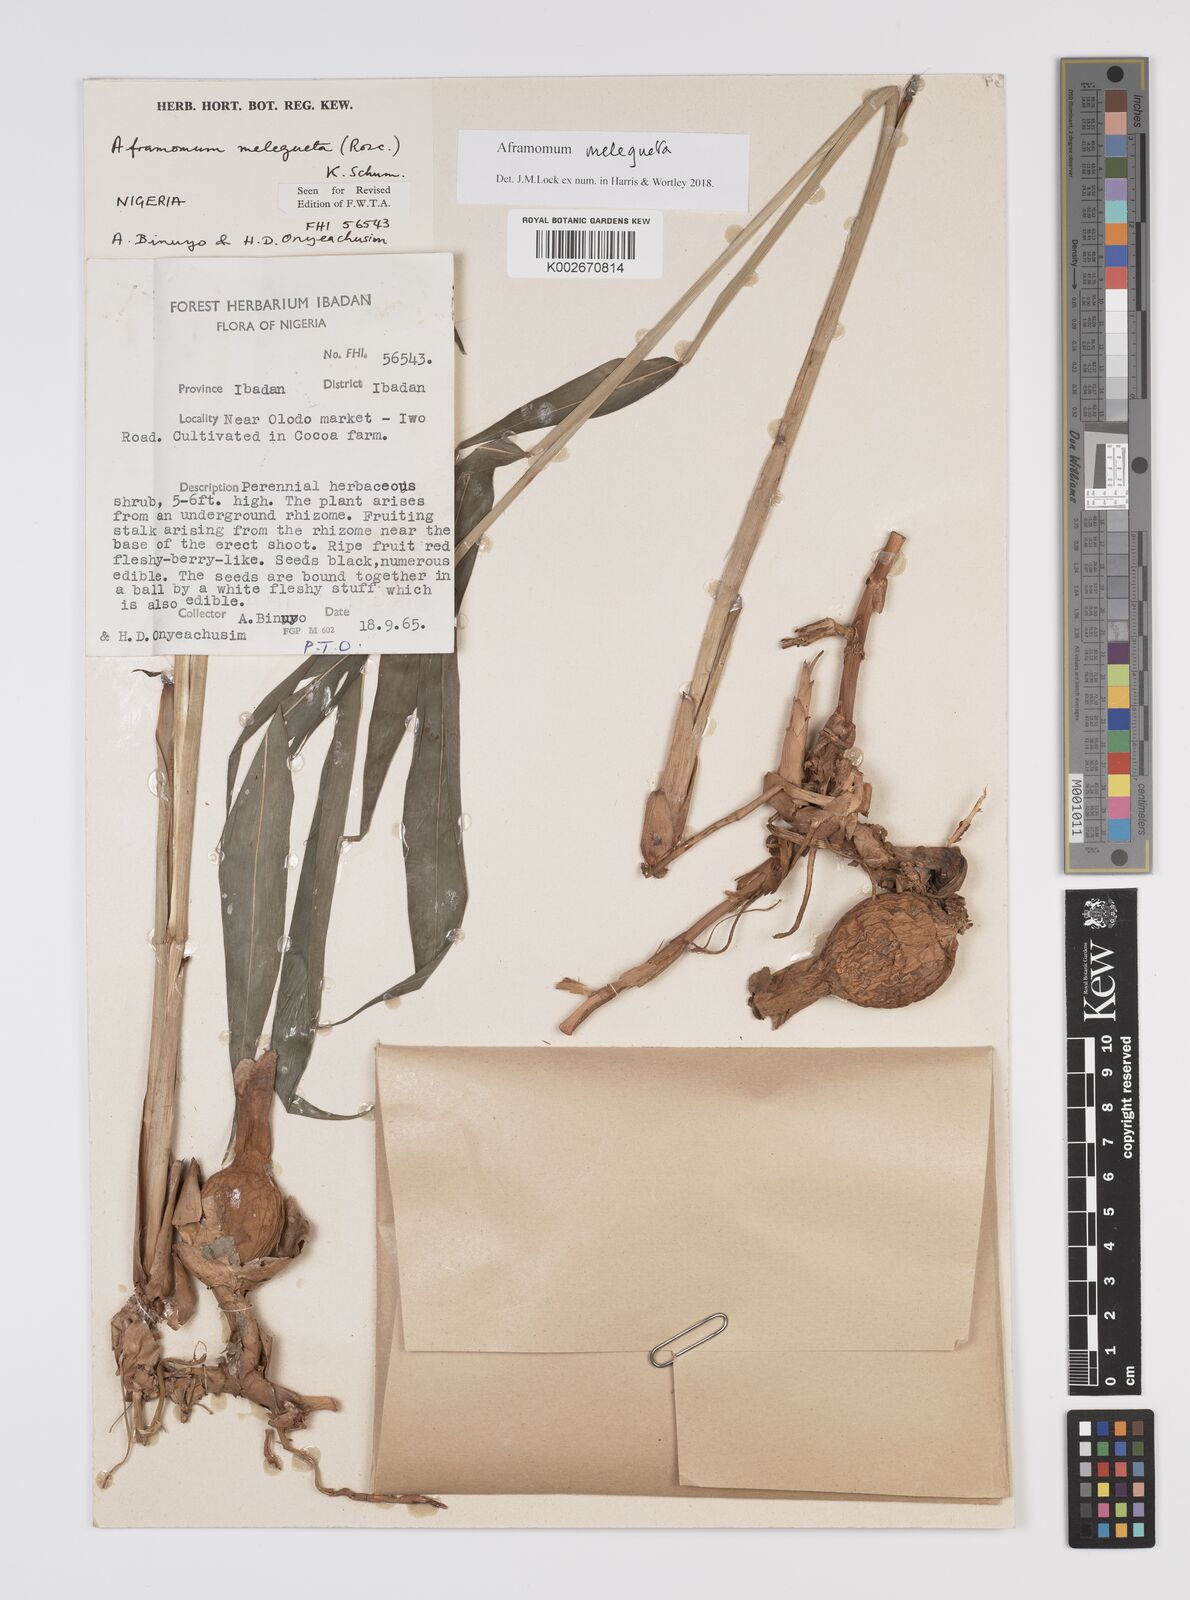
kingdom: Plantae
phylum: Tracheophyta
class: Liliopsida
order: Zingiberales
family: Zingiberaceae
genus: Aframomum
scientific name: Aframomum melegueta
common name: Grains of paradise
